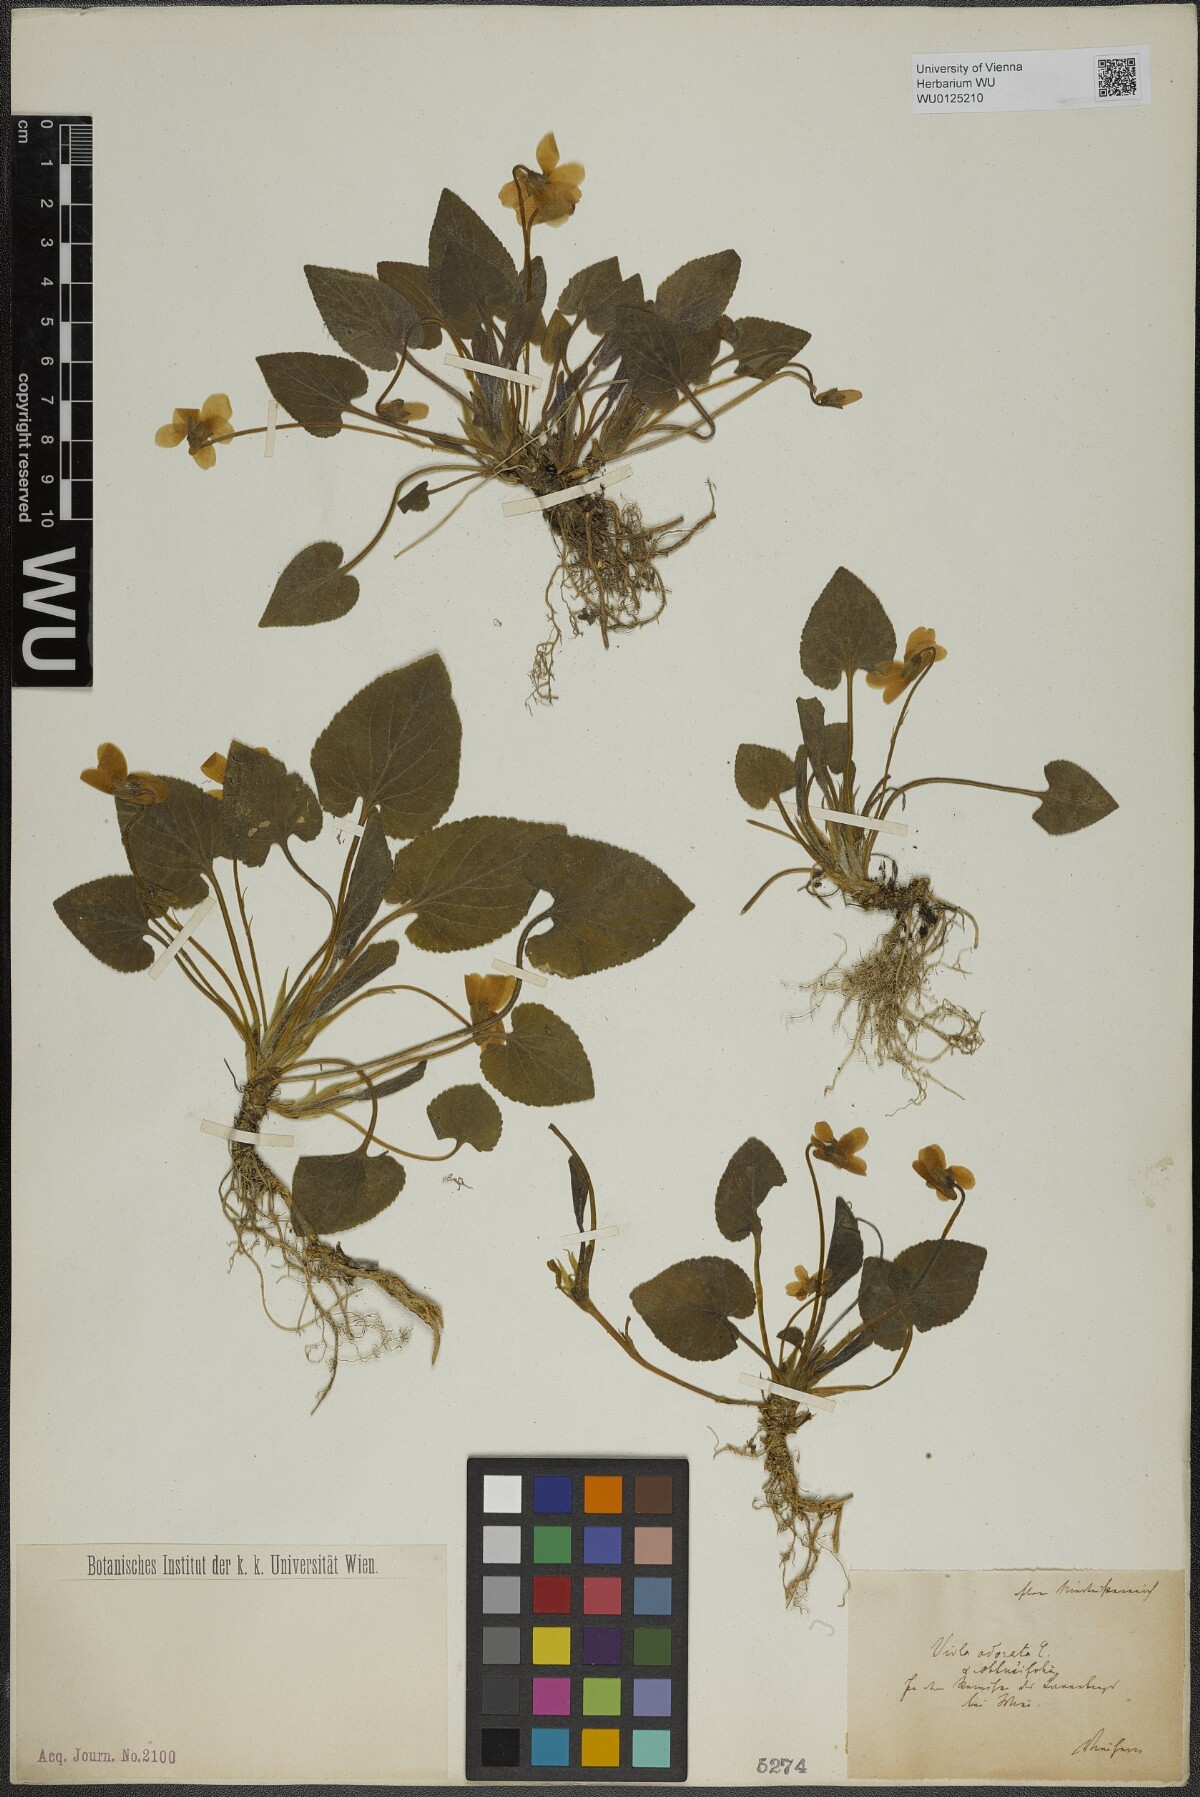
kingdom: Plantae
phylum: Tracheophyta
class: Magnoliopsida
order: Malpighiales
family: Violaceae
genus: Viola
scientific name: Viola odorata
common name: Sweet violet
